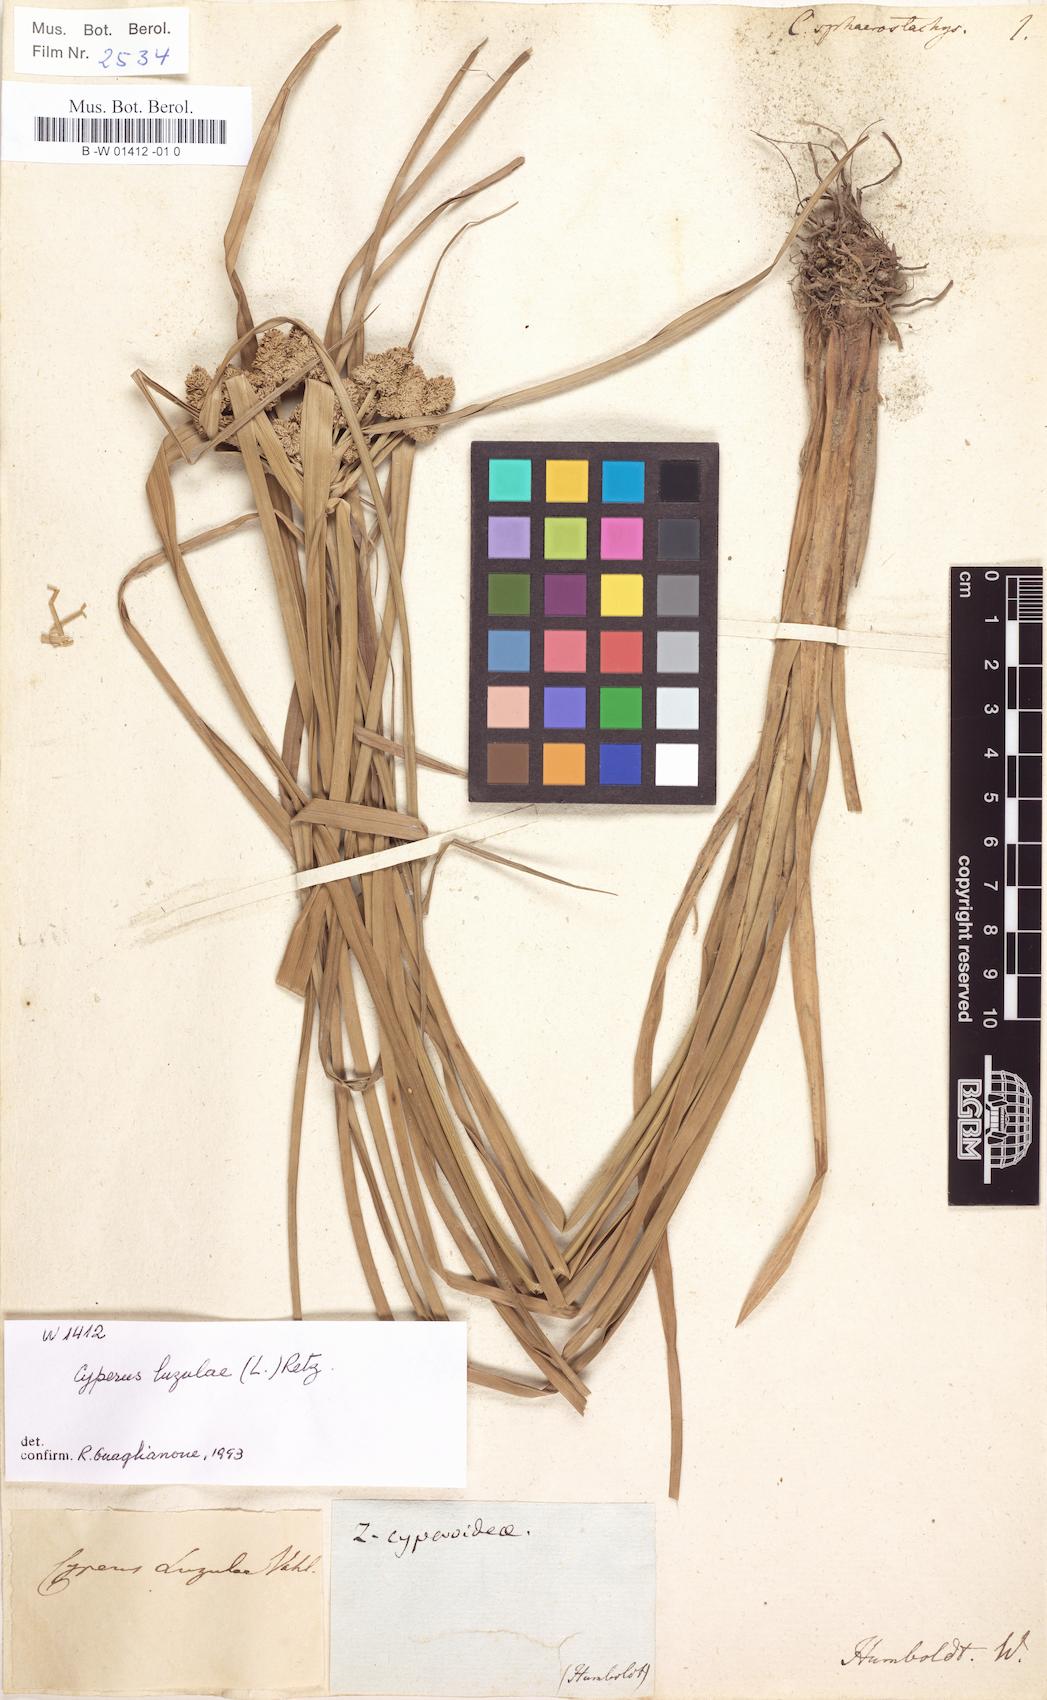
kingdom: Plantae
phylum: Tracheophyta
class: Liliopsida
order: Poales
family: Cyperaceae
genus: Cyperus
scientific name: Cyperus luzulae
